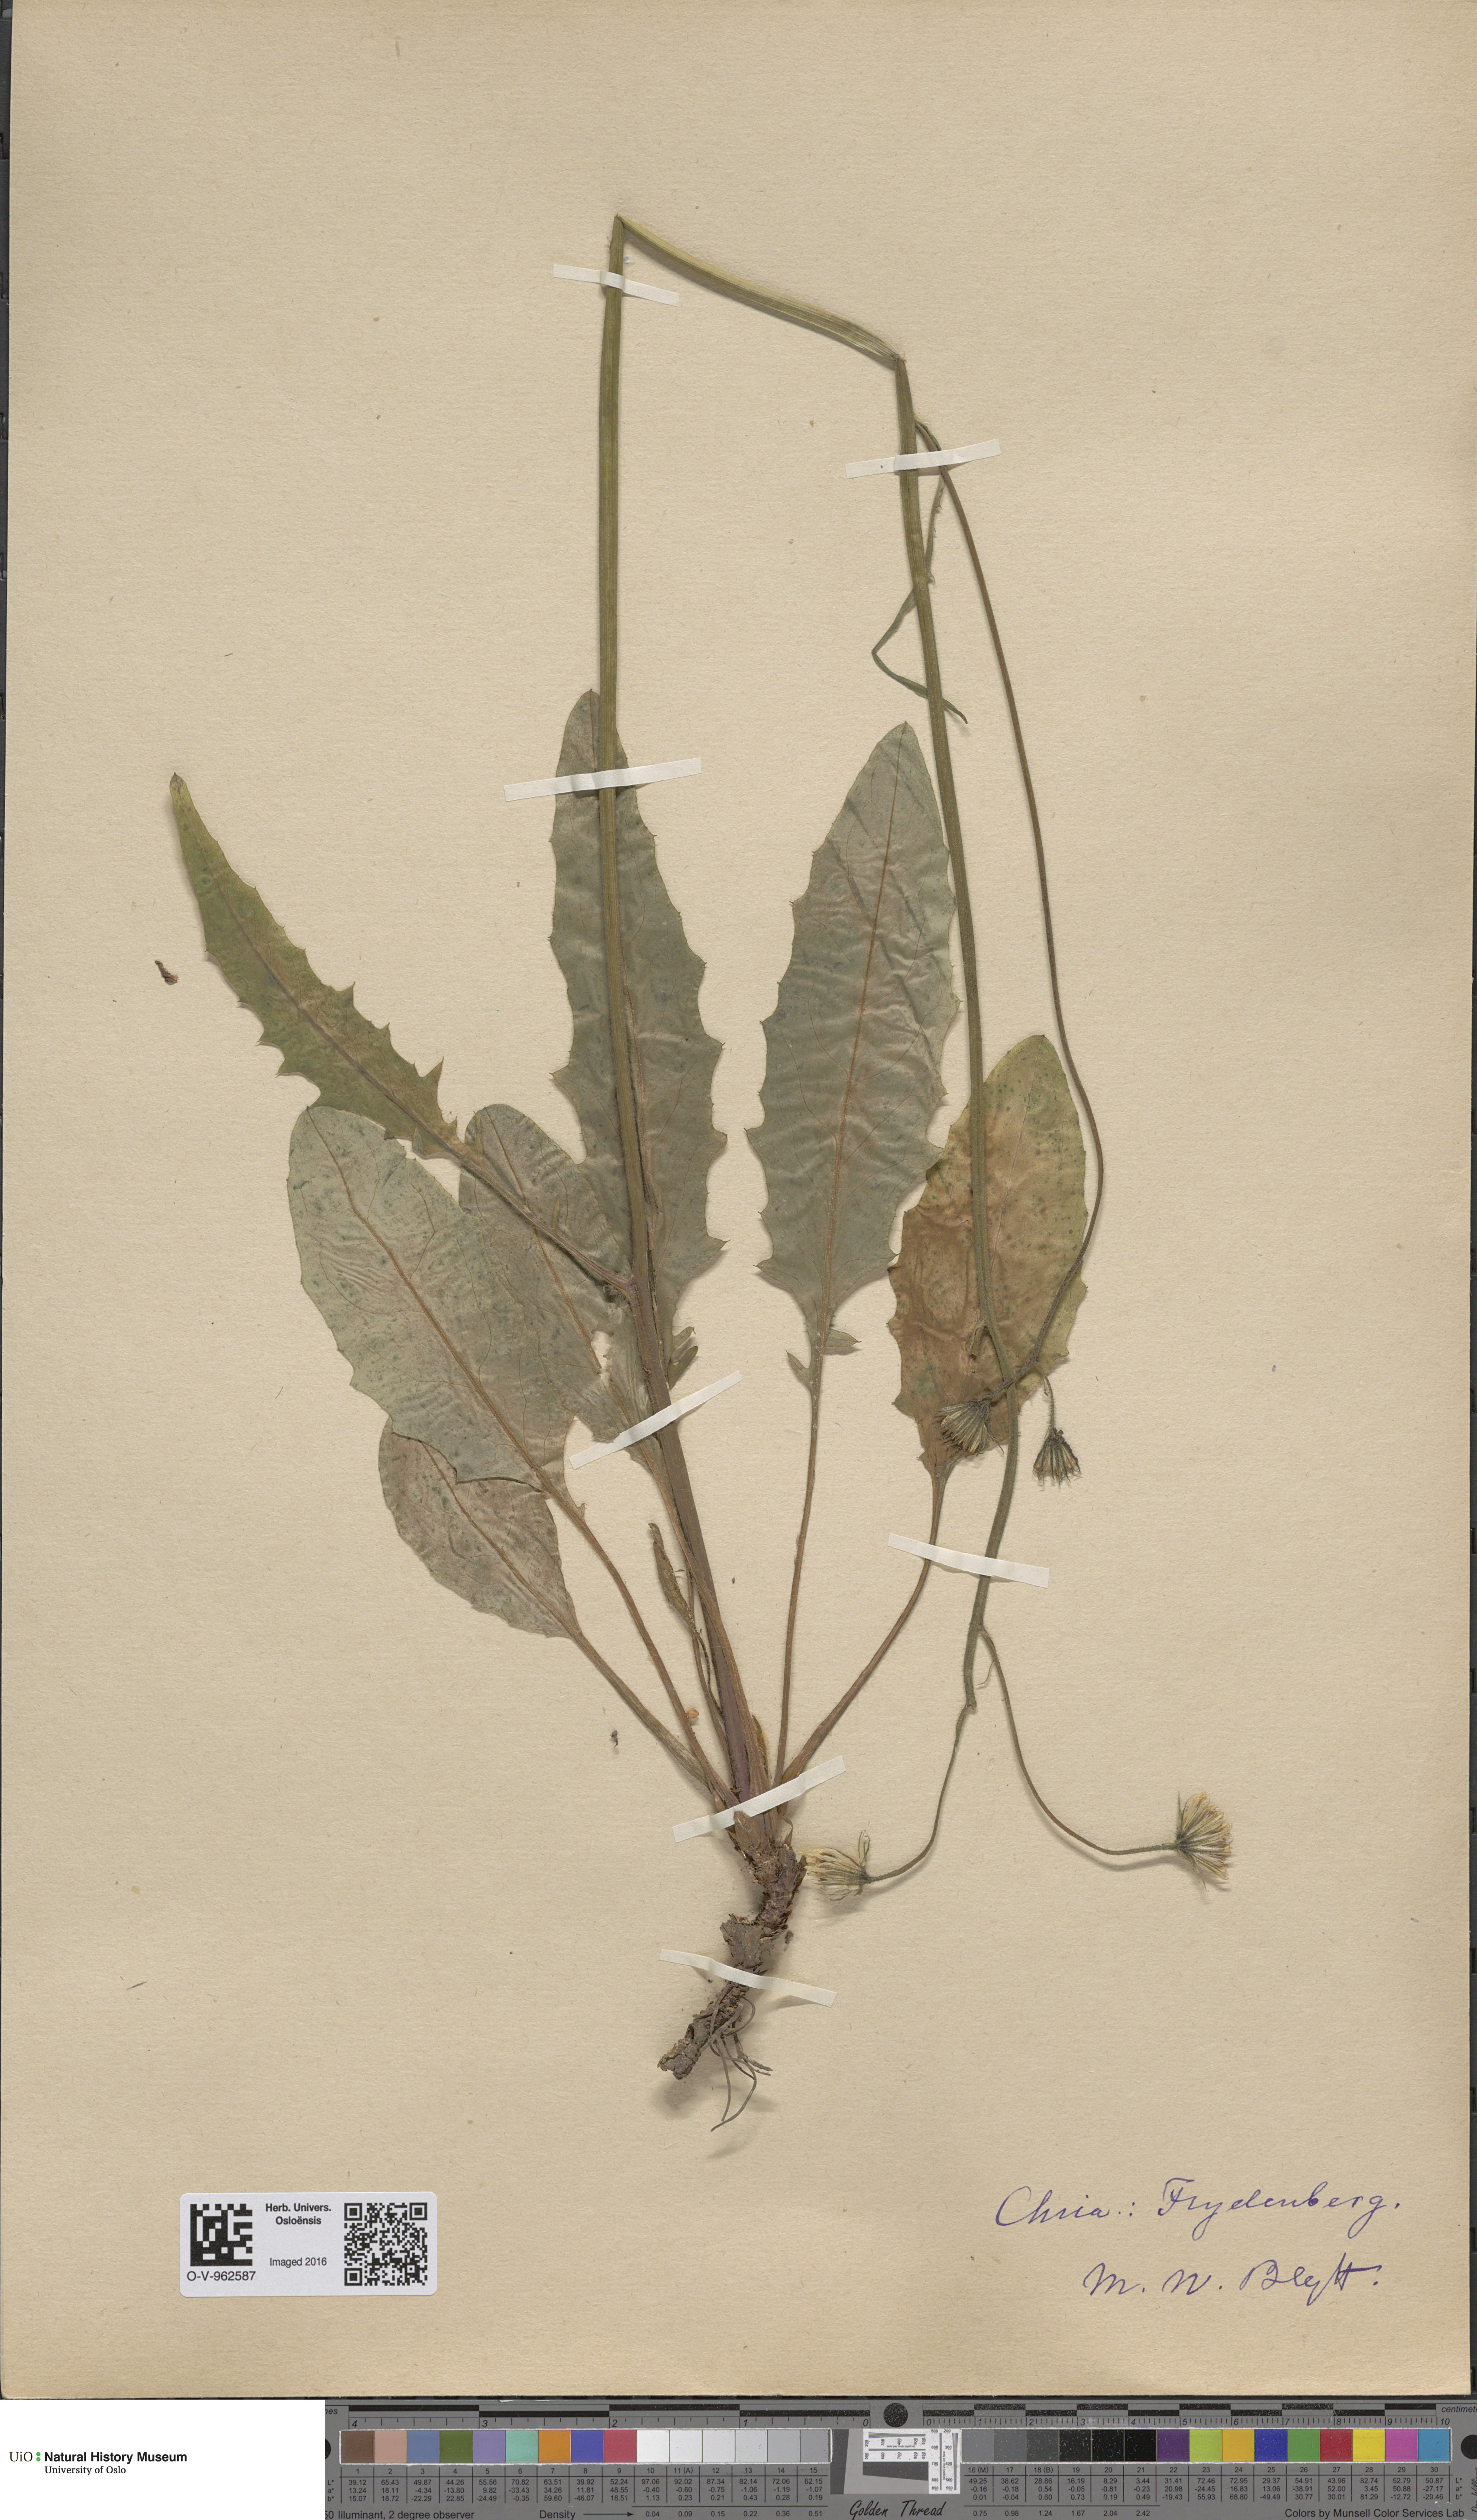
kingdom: Plantae
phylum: Tracheophyta
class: Magnoliopsida
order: Asterales
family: Asteraceae
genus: Hieracium
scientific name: Hieracium
